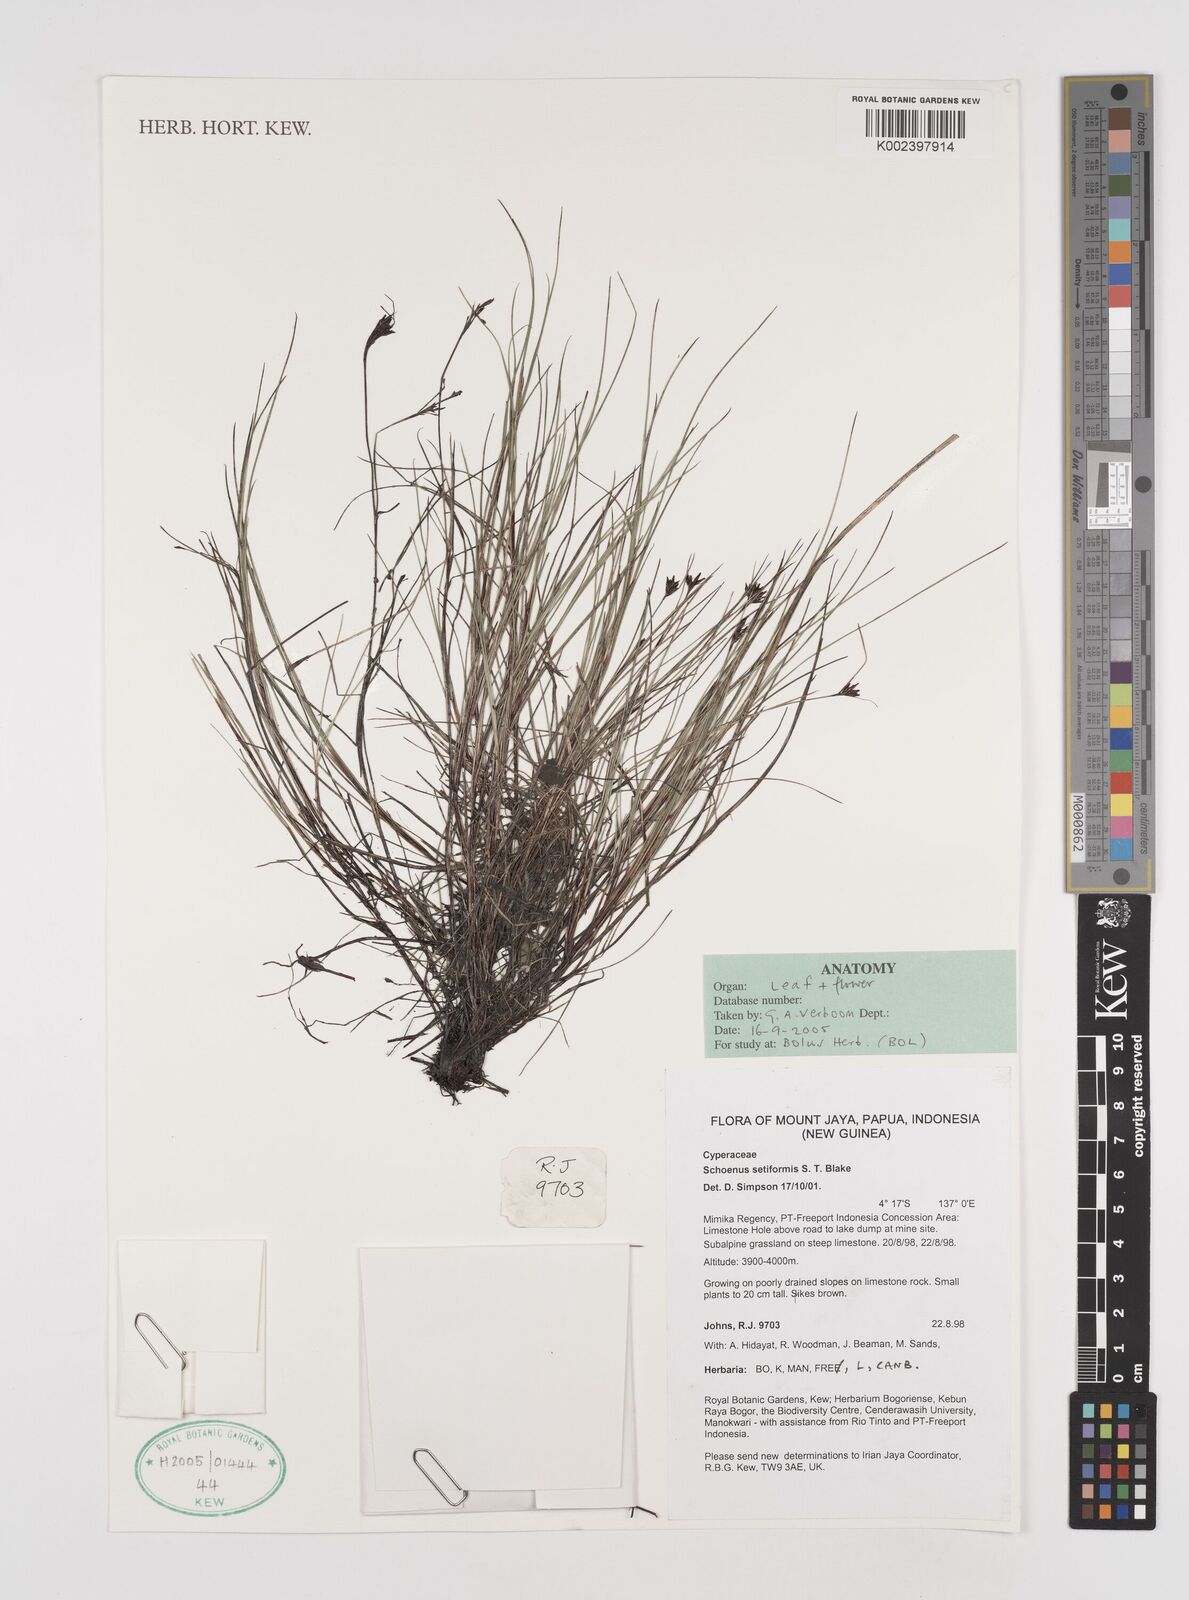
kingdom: Plantae
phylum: Tracheophyta
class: Liliopsida
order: Poales
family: Cyperaceae
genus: Schoenus
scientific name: Schoenus setiformis
